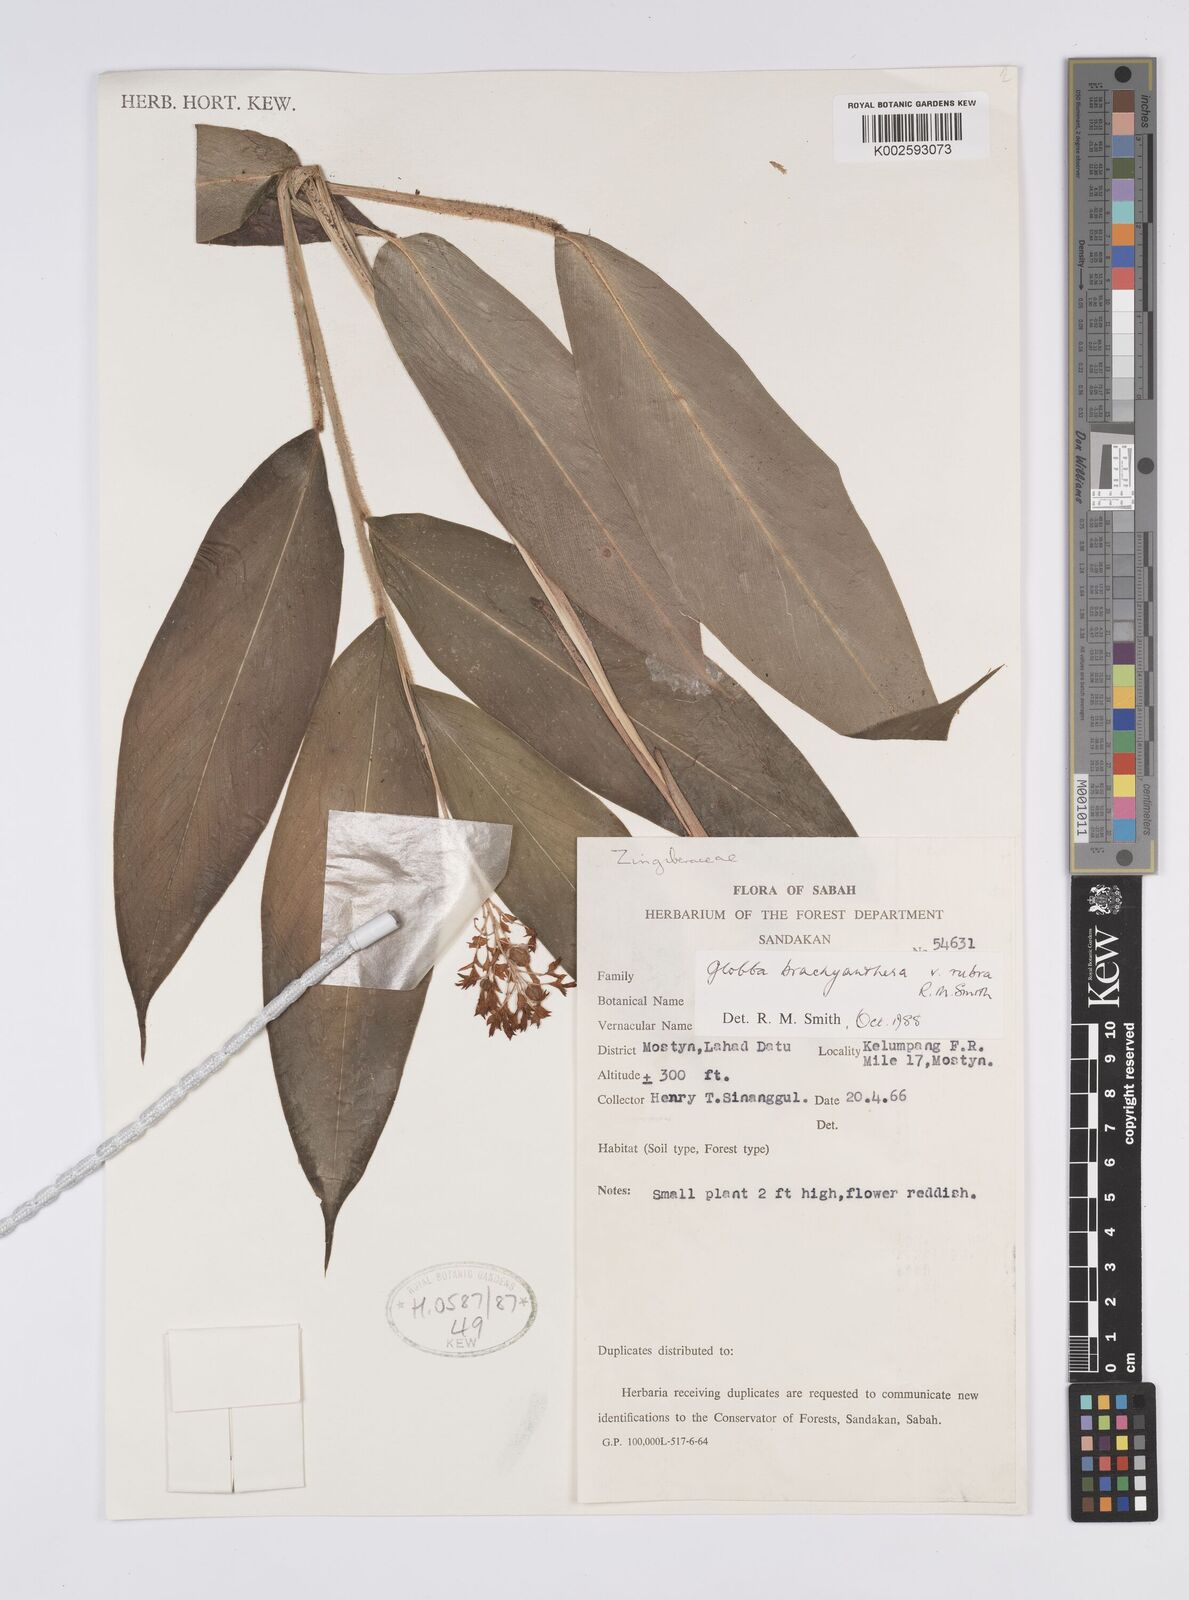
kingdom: Plantae
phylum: Tracheophyta
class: Liliopsida
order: Zingiberales
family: Zingiberaceae
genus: Globba
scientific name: Globba brachyanthera
